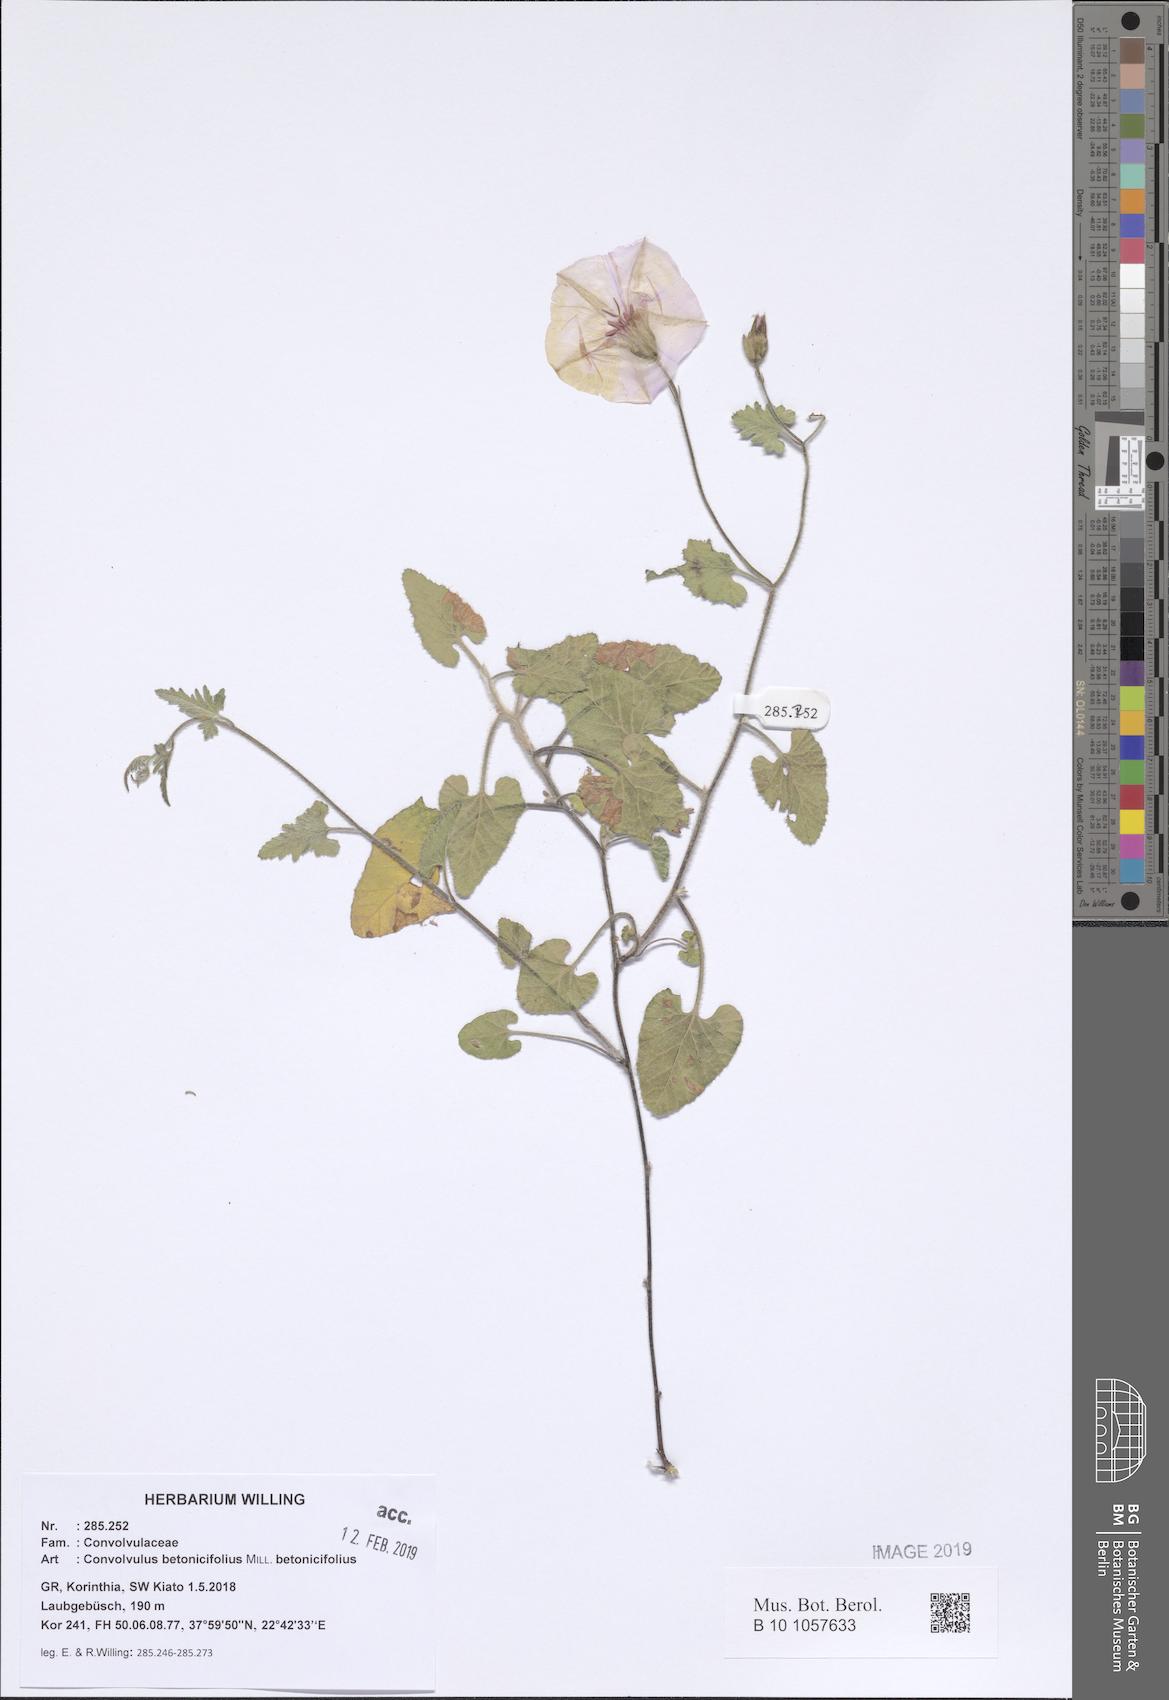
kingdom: Plantae
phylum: Tracheophyta
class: Magnoliopsida
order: Solanales
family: Convolvulaceae
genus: Convolvulus
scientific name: Convolvulus betonicifolius
